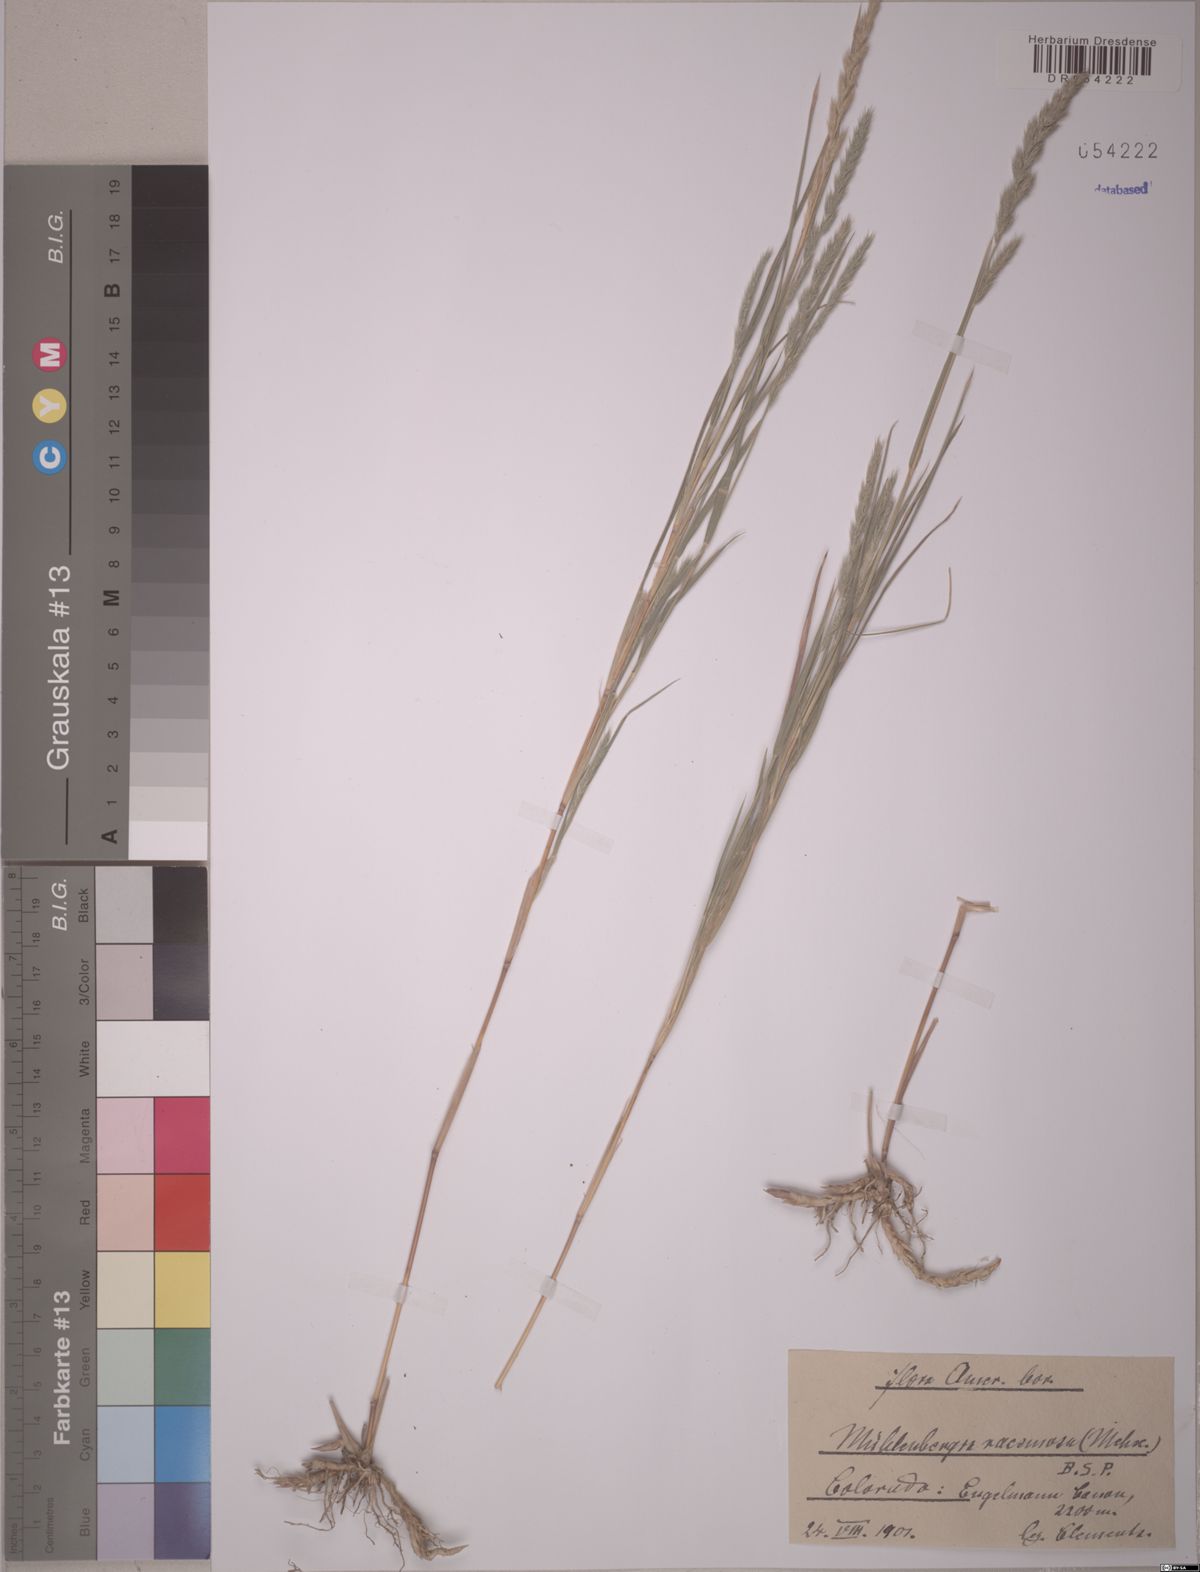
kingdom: Plantae
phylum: Tracheophyta
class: Liliopsida
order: Poales
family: Poaceae
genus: Muhlenbergia
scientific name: Muhlenbergia racemosa
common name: Green muhly
